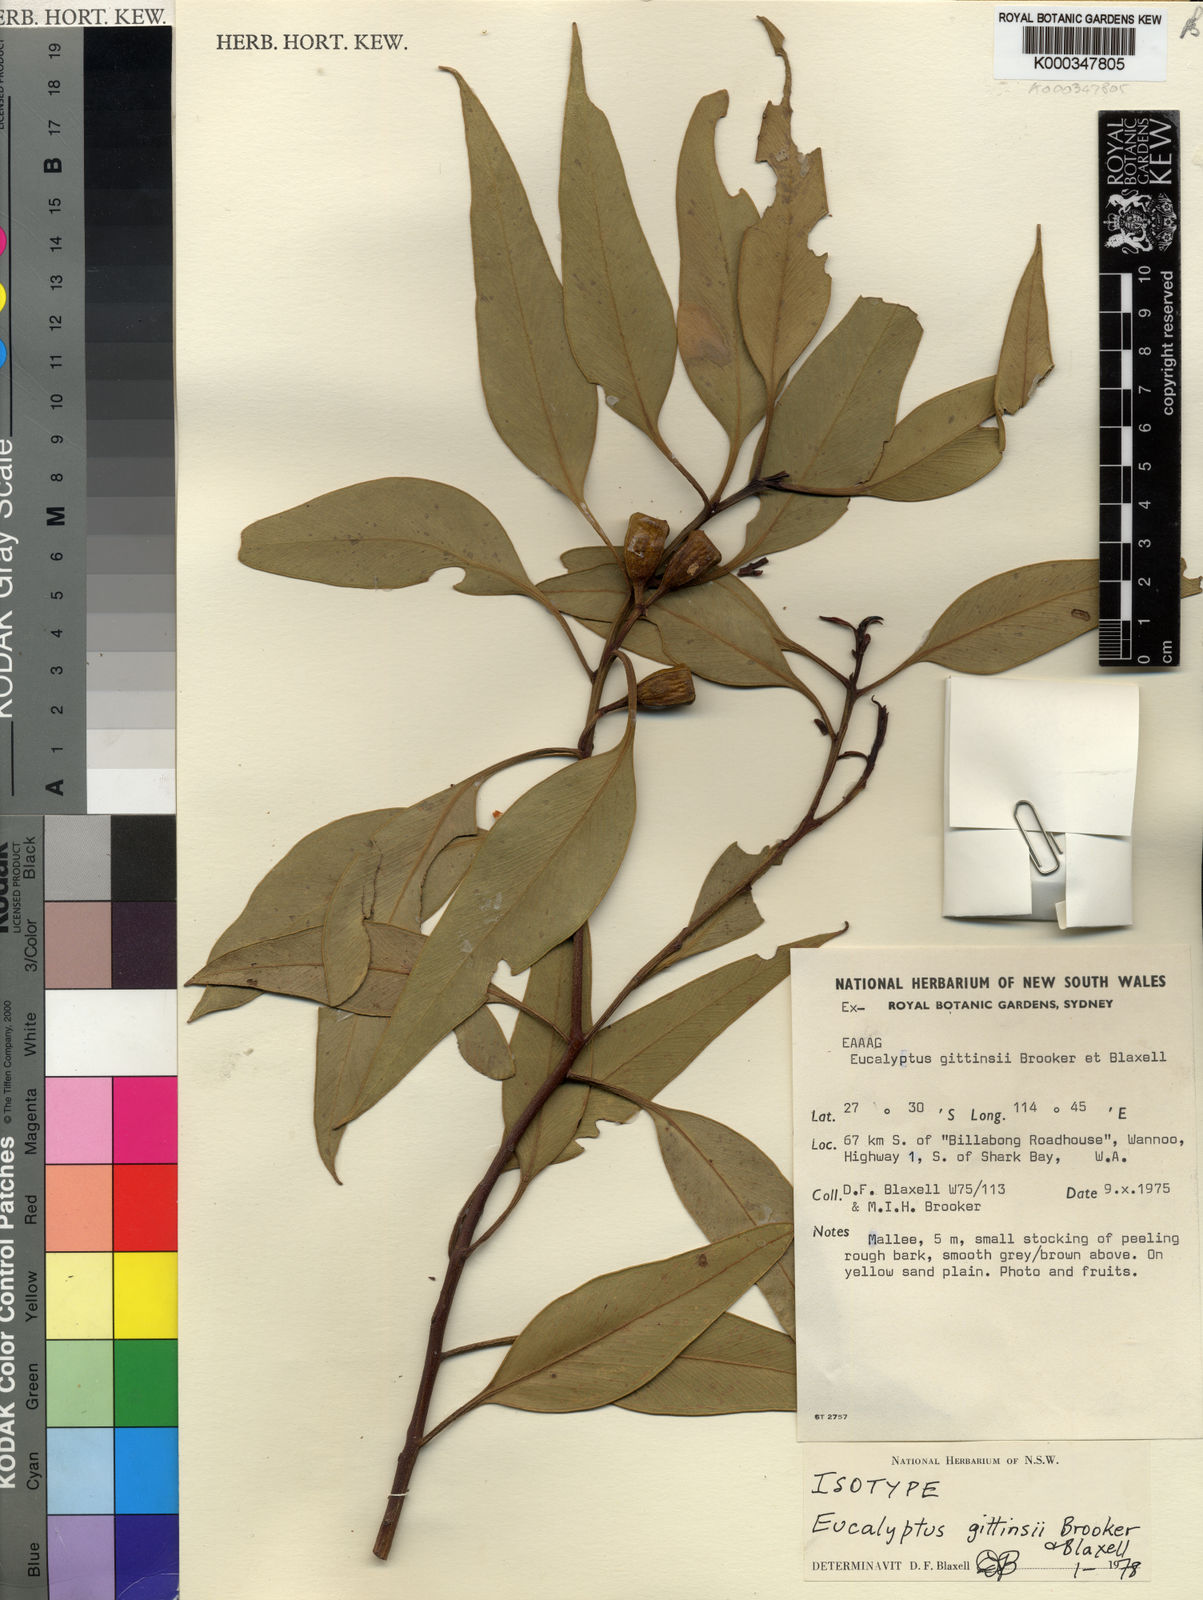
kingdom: Plantae
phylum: Tracheophyta
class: Magnoliopsida
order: Myrtales
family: Myrtaceae
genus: Eucalyptus
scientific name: Eucalyptus gittinsii
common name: Northern sandplain mallee
